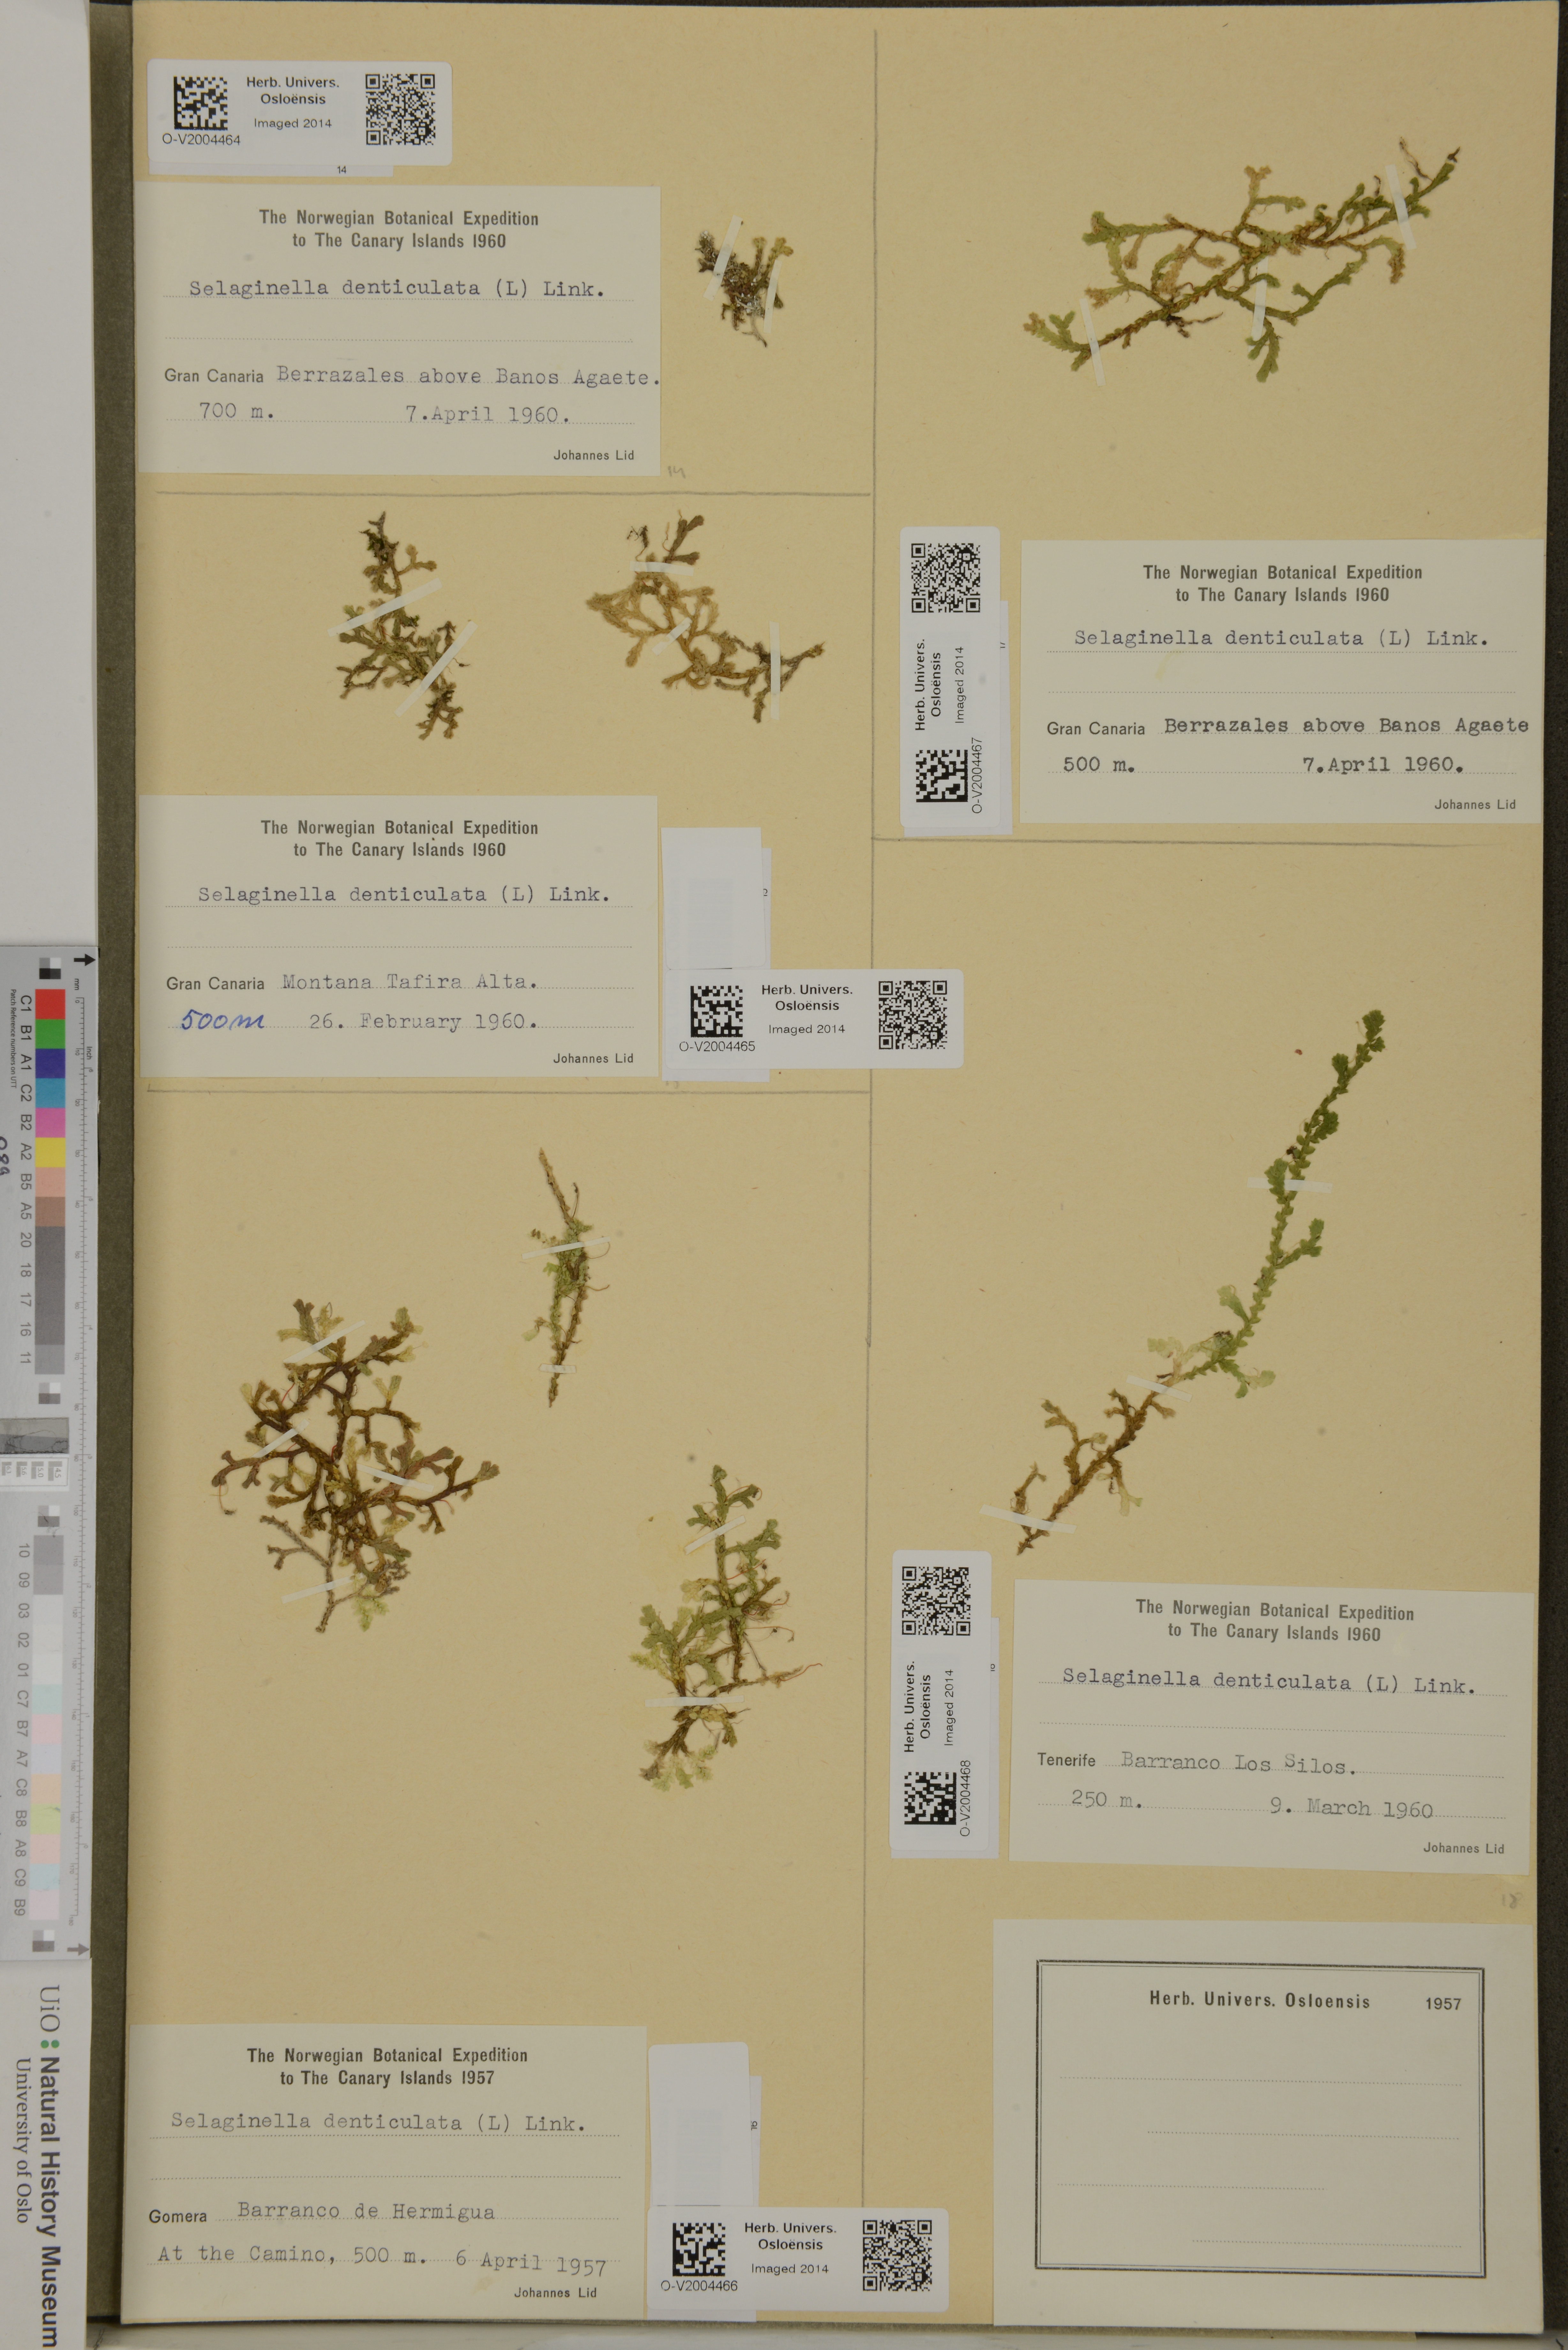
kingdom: Plantae
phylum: Tracheophyta
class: Lycopodiopsida
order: Selaginellales
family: Selaginellaceae
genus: Selaginella
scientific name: Selaginella denticulata
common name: Toothed-leaved clubmoss
